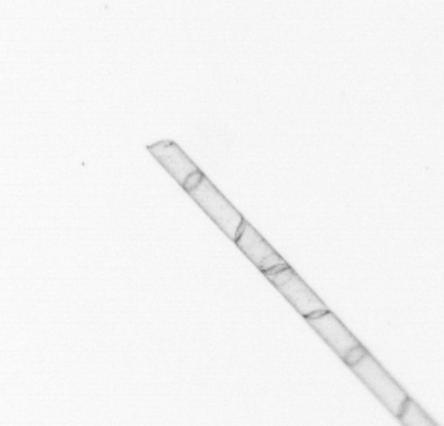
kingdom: Chromista
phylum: Ochrophyta
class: Bacillariophyceae
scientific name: Bacillariophyceae
